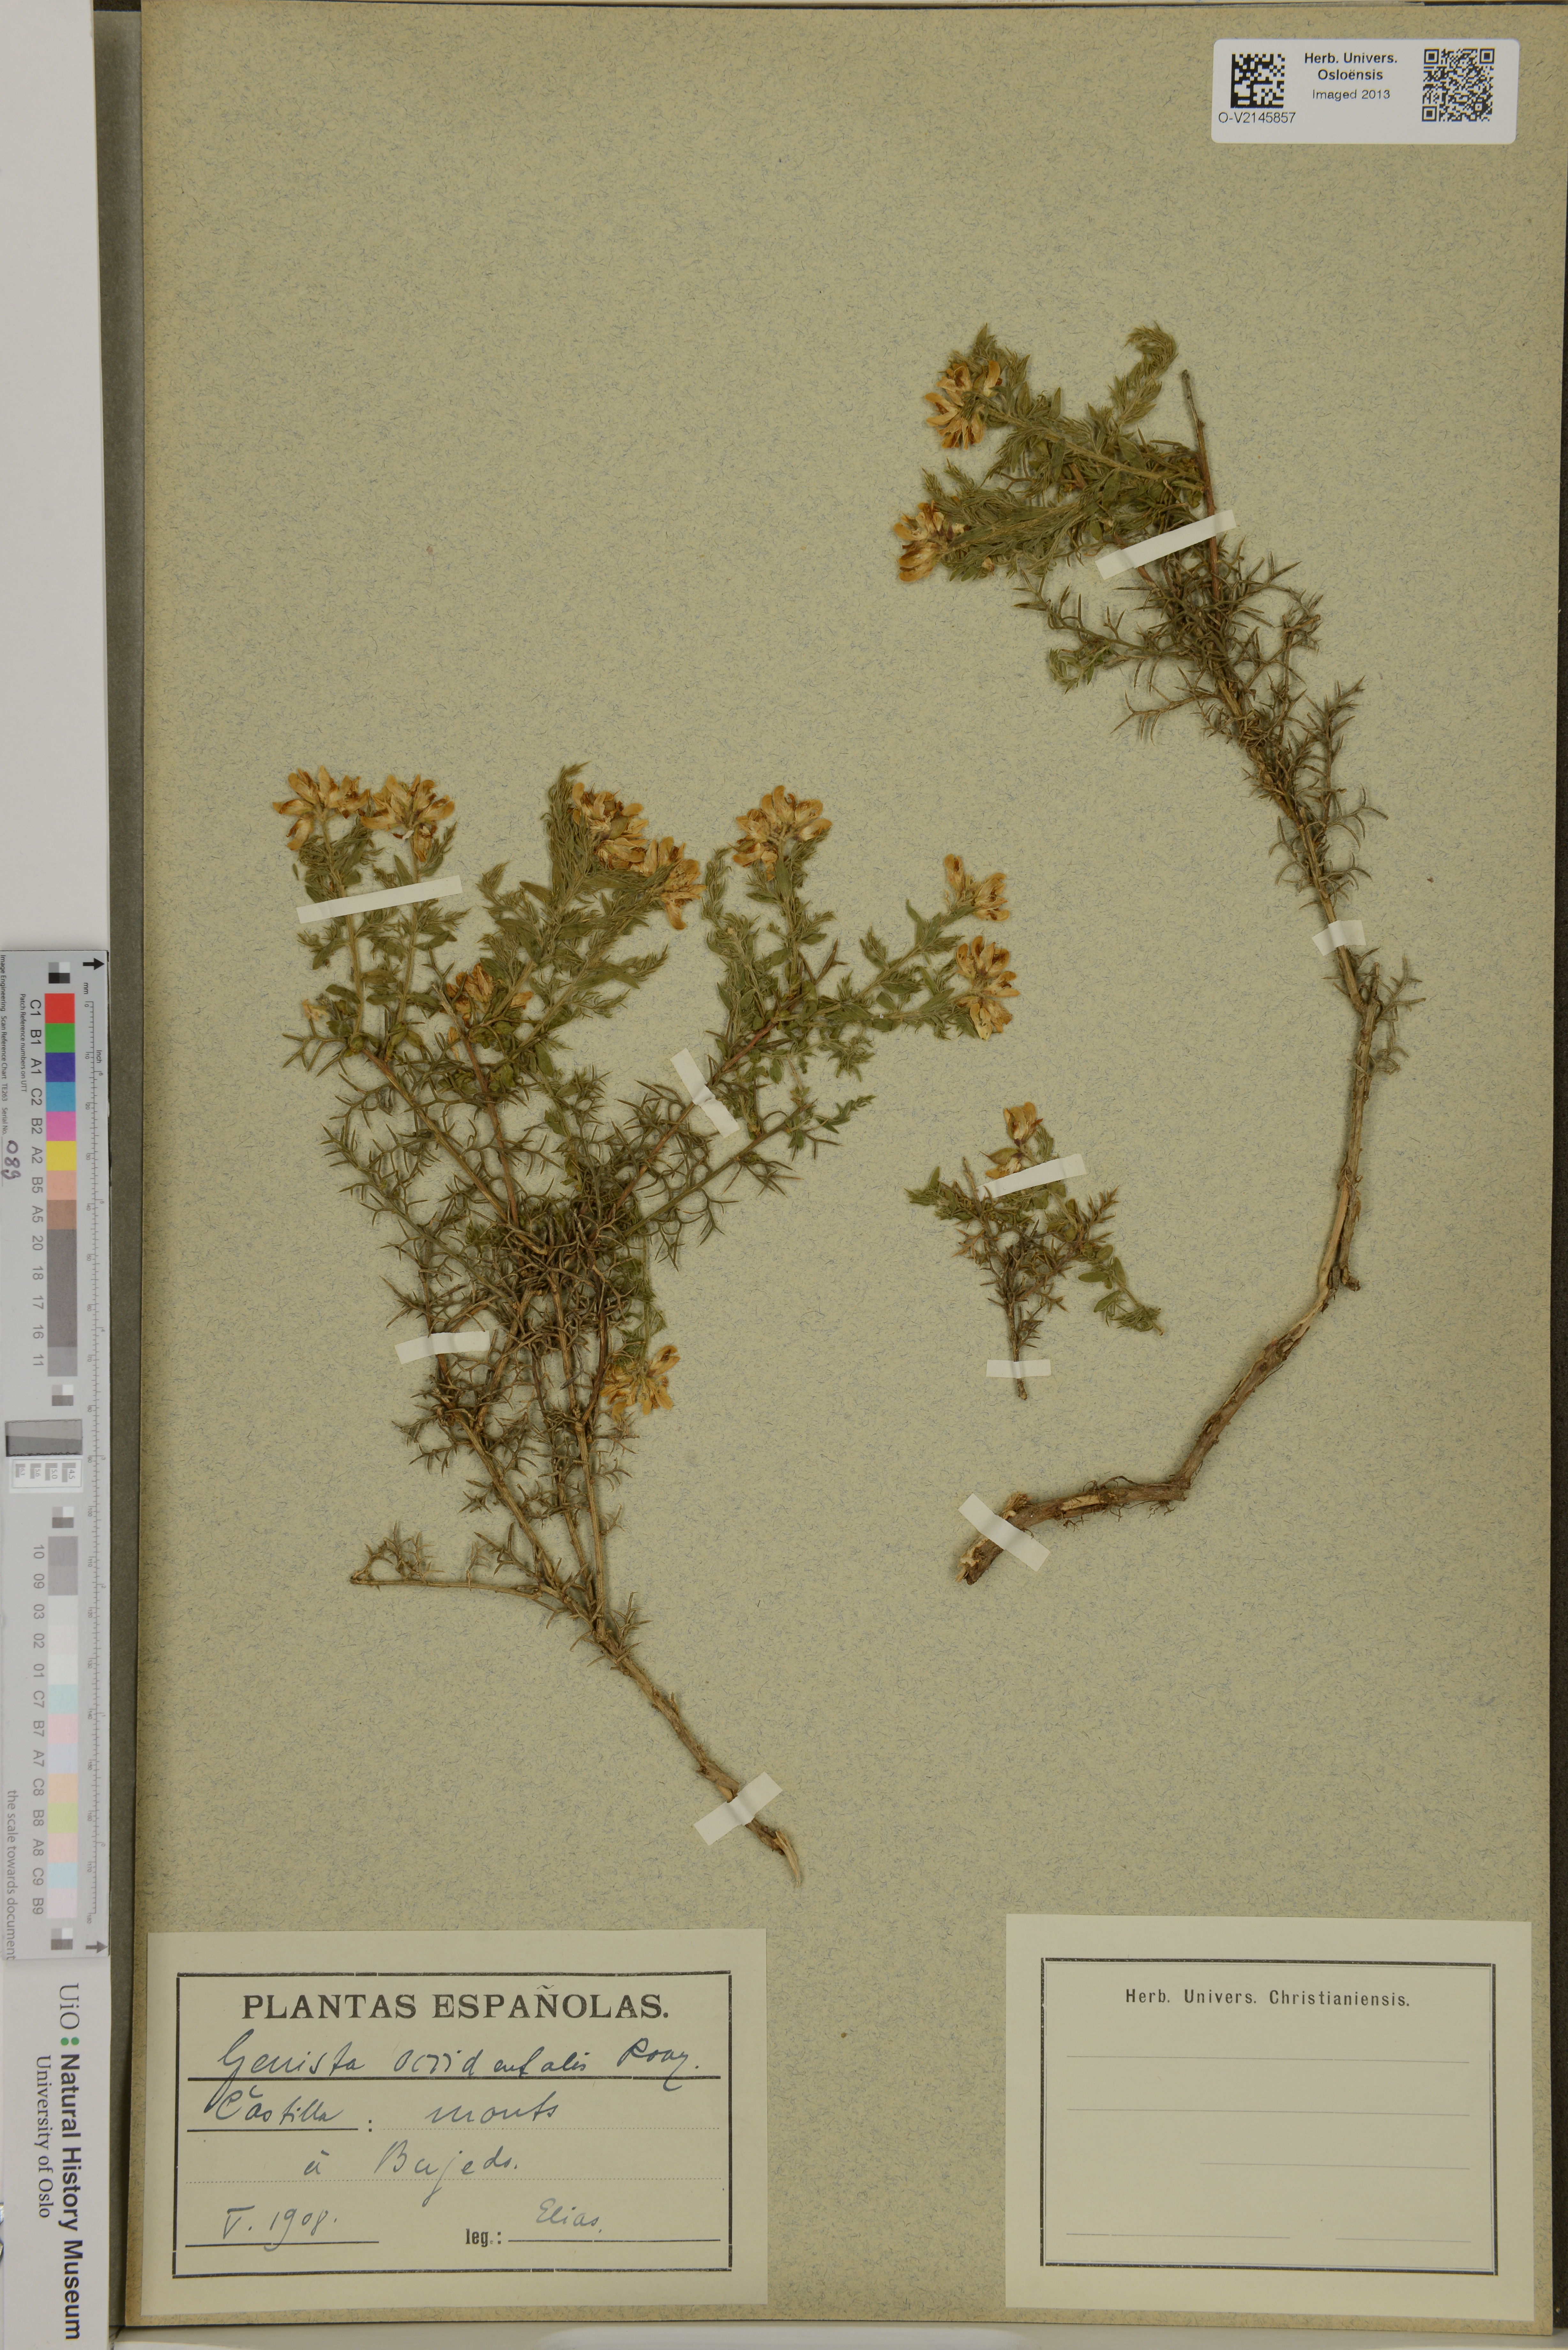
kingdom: Plantae
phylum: Tracheophyta
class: Magnoliopsida
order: Fabales
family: Fabaceae
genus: Genista
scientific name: Genista occidentalis
